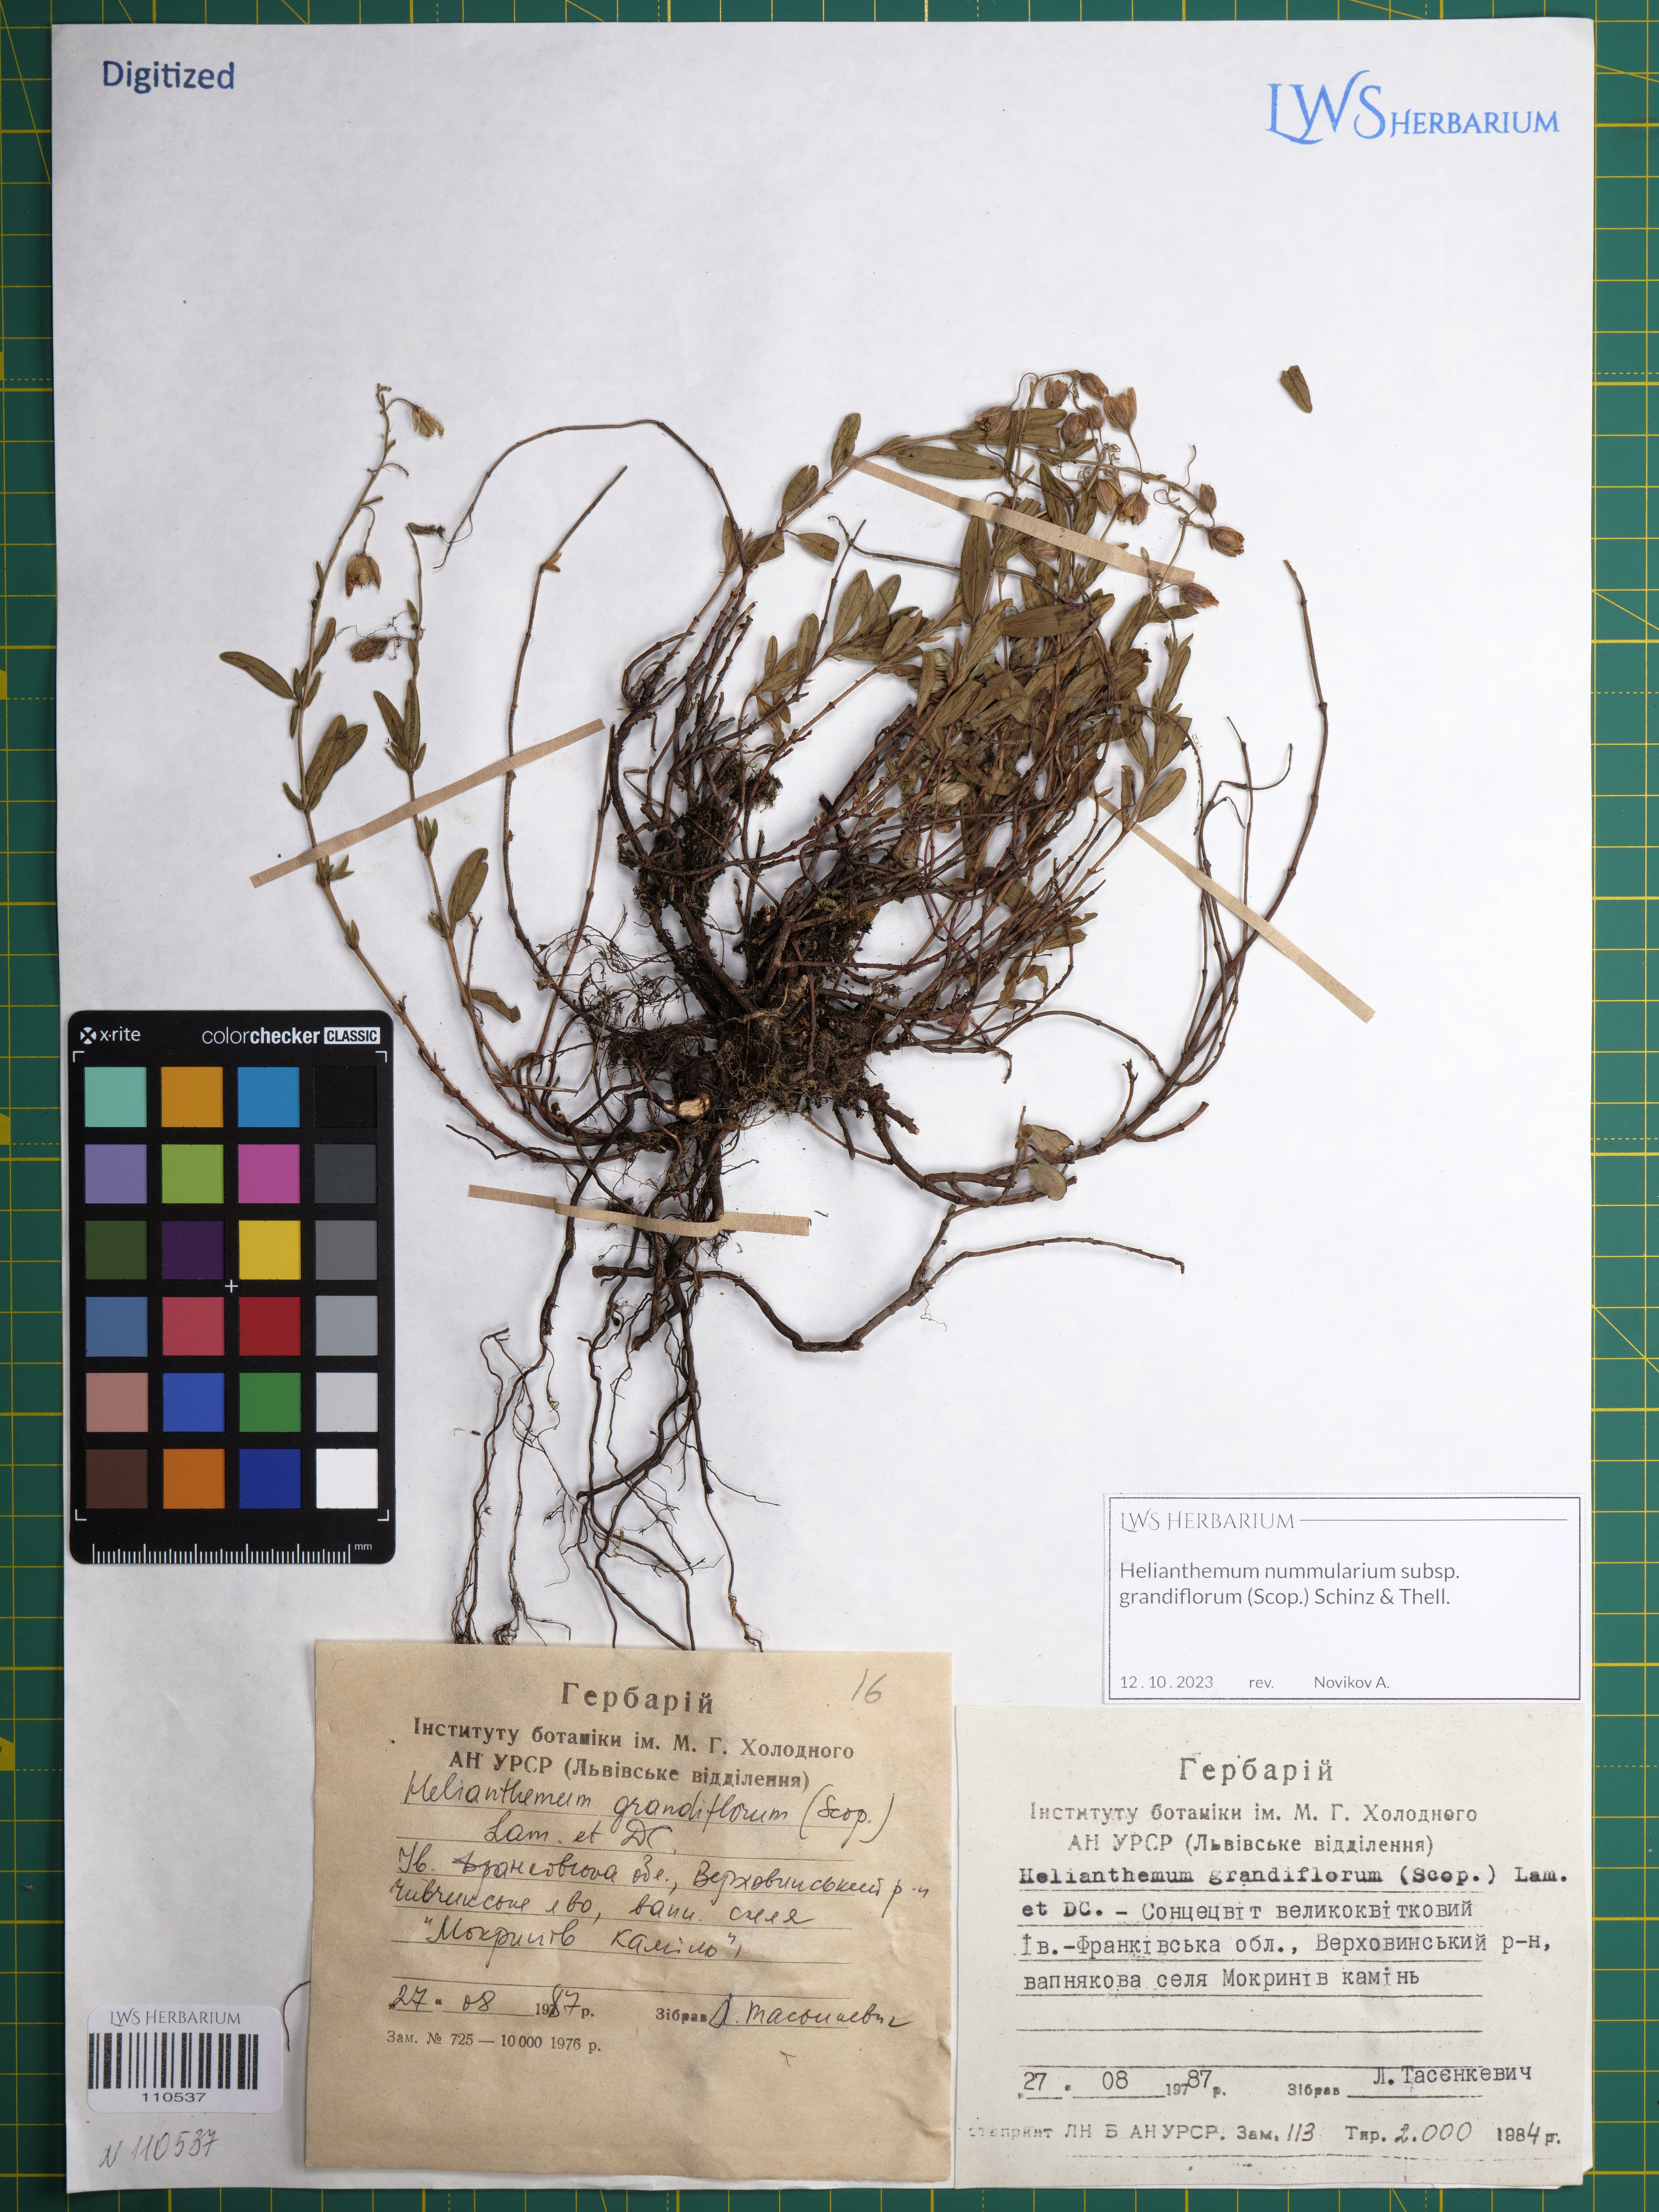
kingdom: Plantae
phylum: Tracheophyta
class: Magnoliopsida
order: Malvales
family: Cistaceae
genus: Helianthemum
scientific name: Helianthemum nummularium
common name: Common rock-rose
